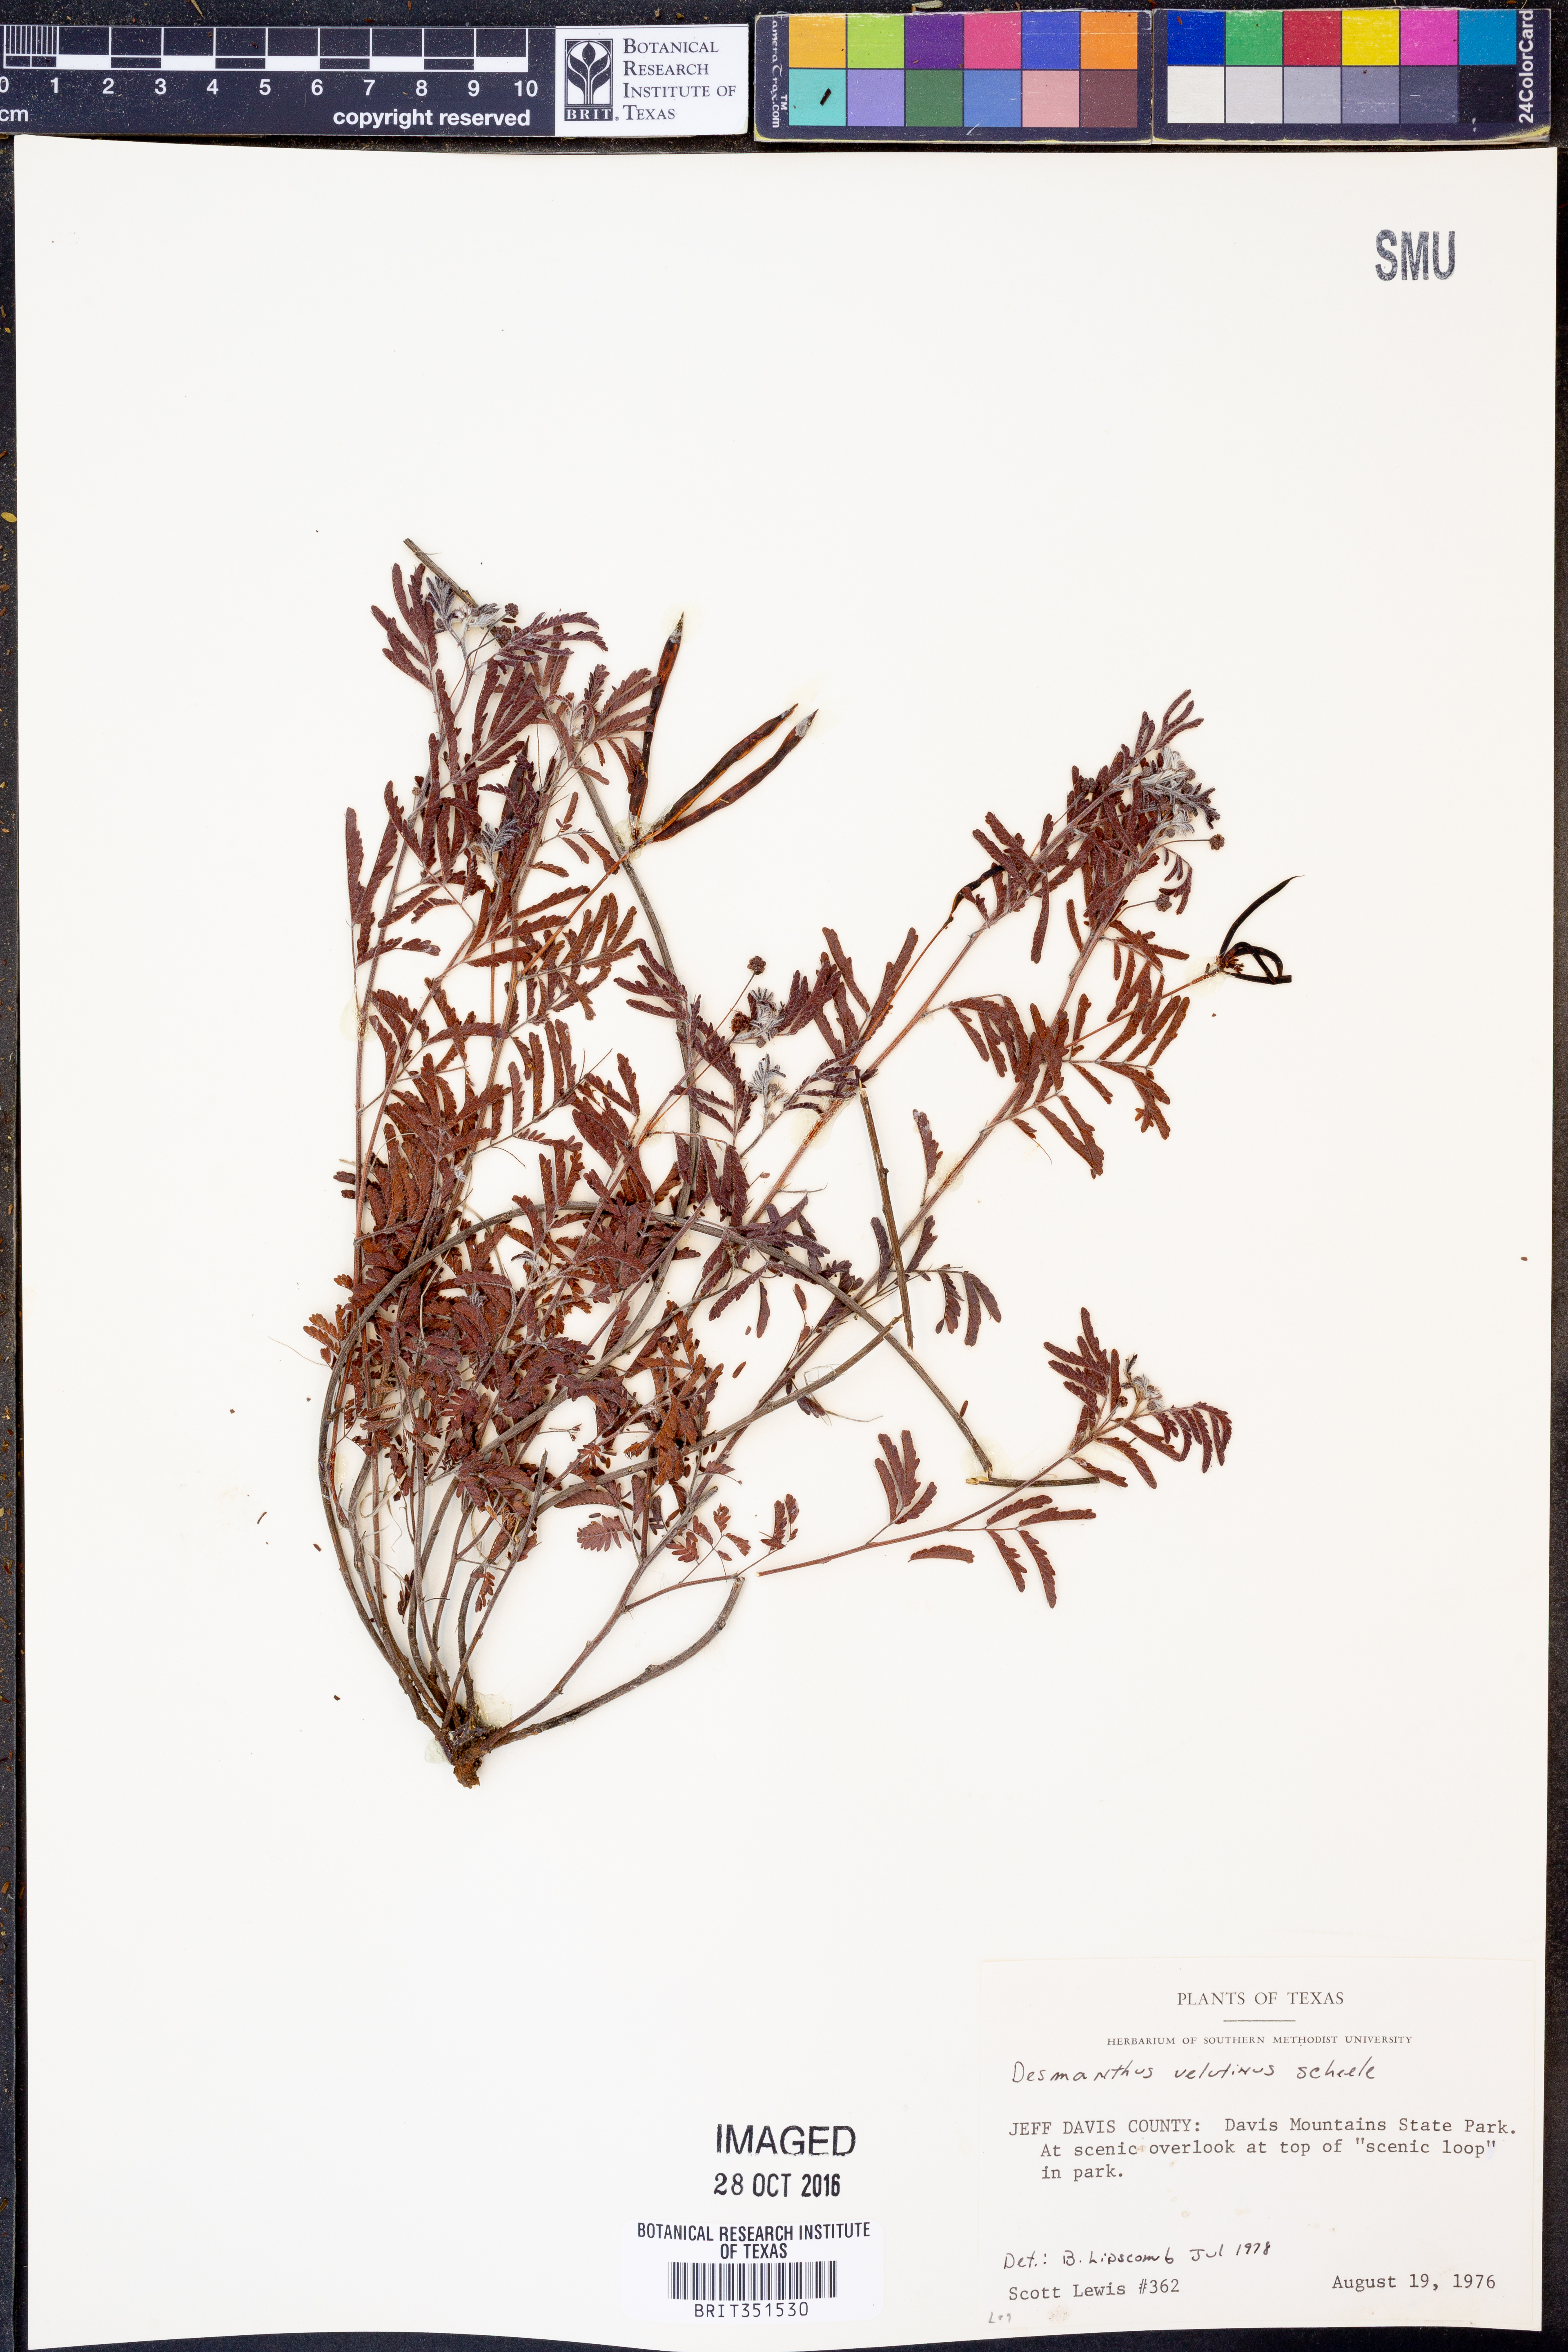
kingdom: Plantae
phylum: Tracheophyta
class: Magnoliopsida
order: Fabales
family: Fabaceae
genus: Desmanthus
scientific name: Desmanthus velutinus
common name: Velvet bundle-flower
